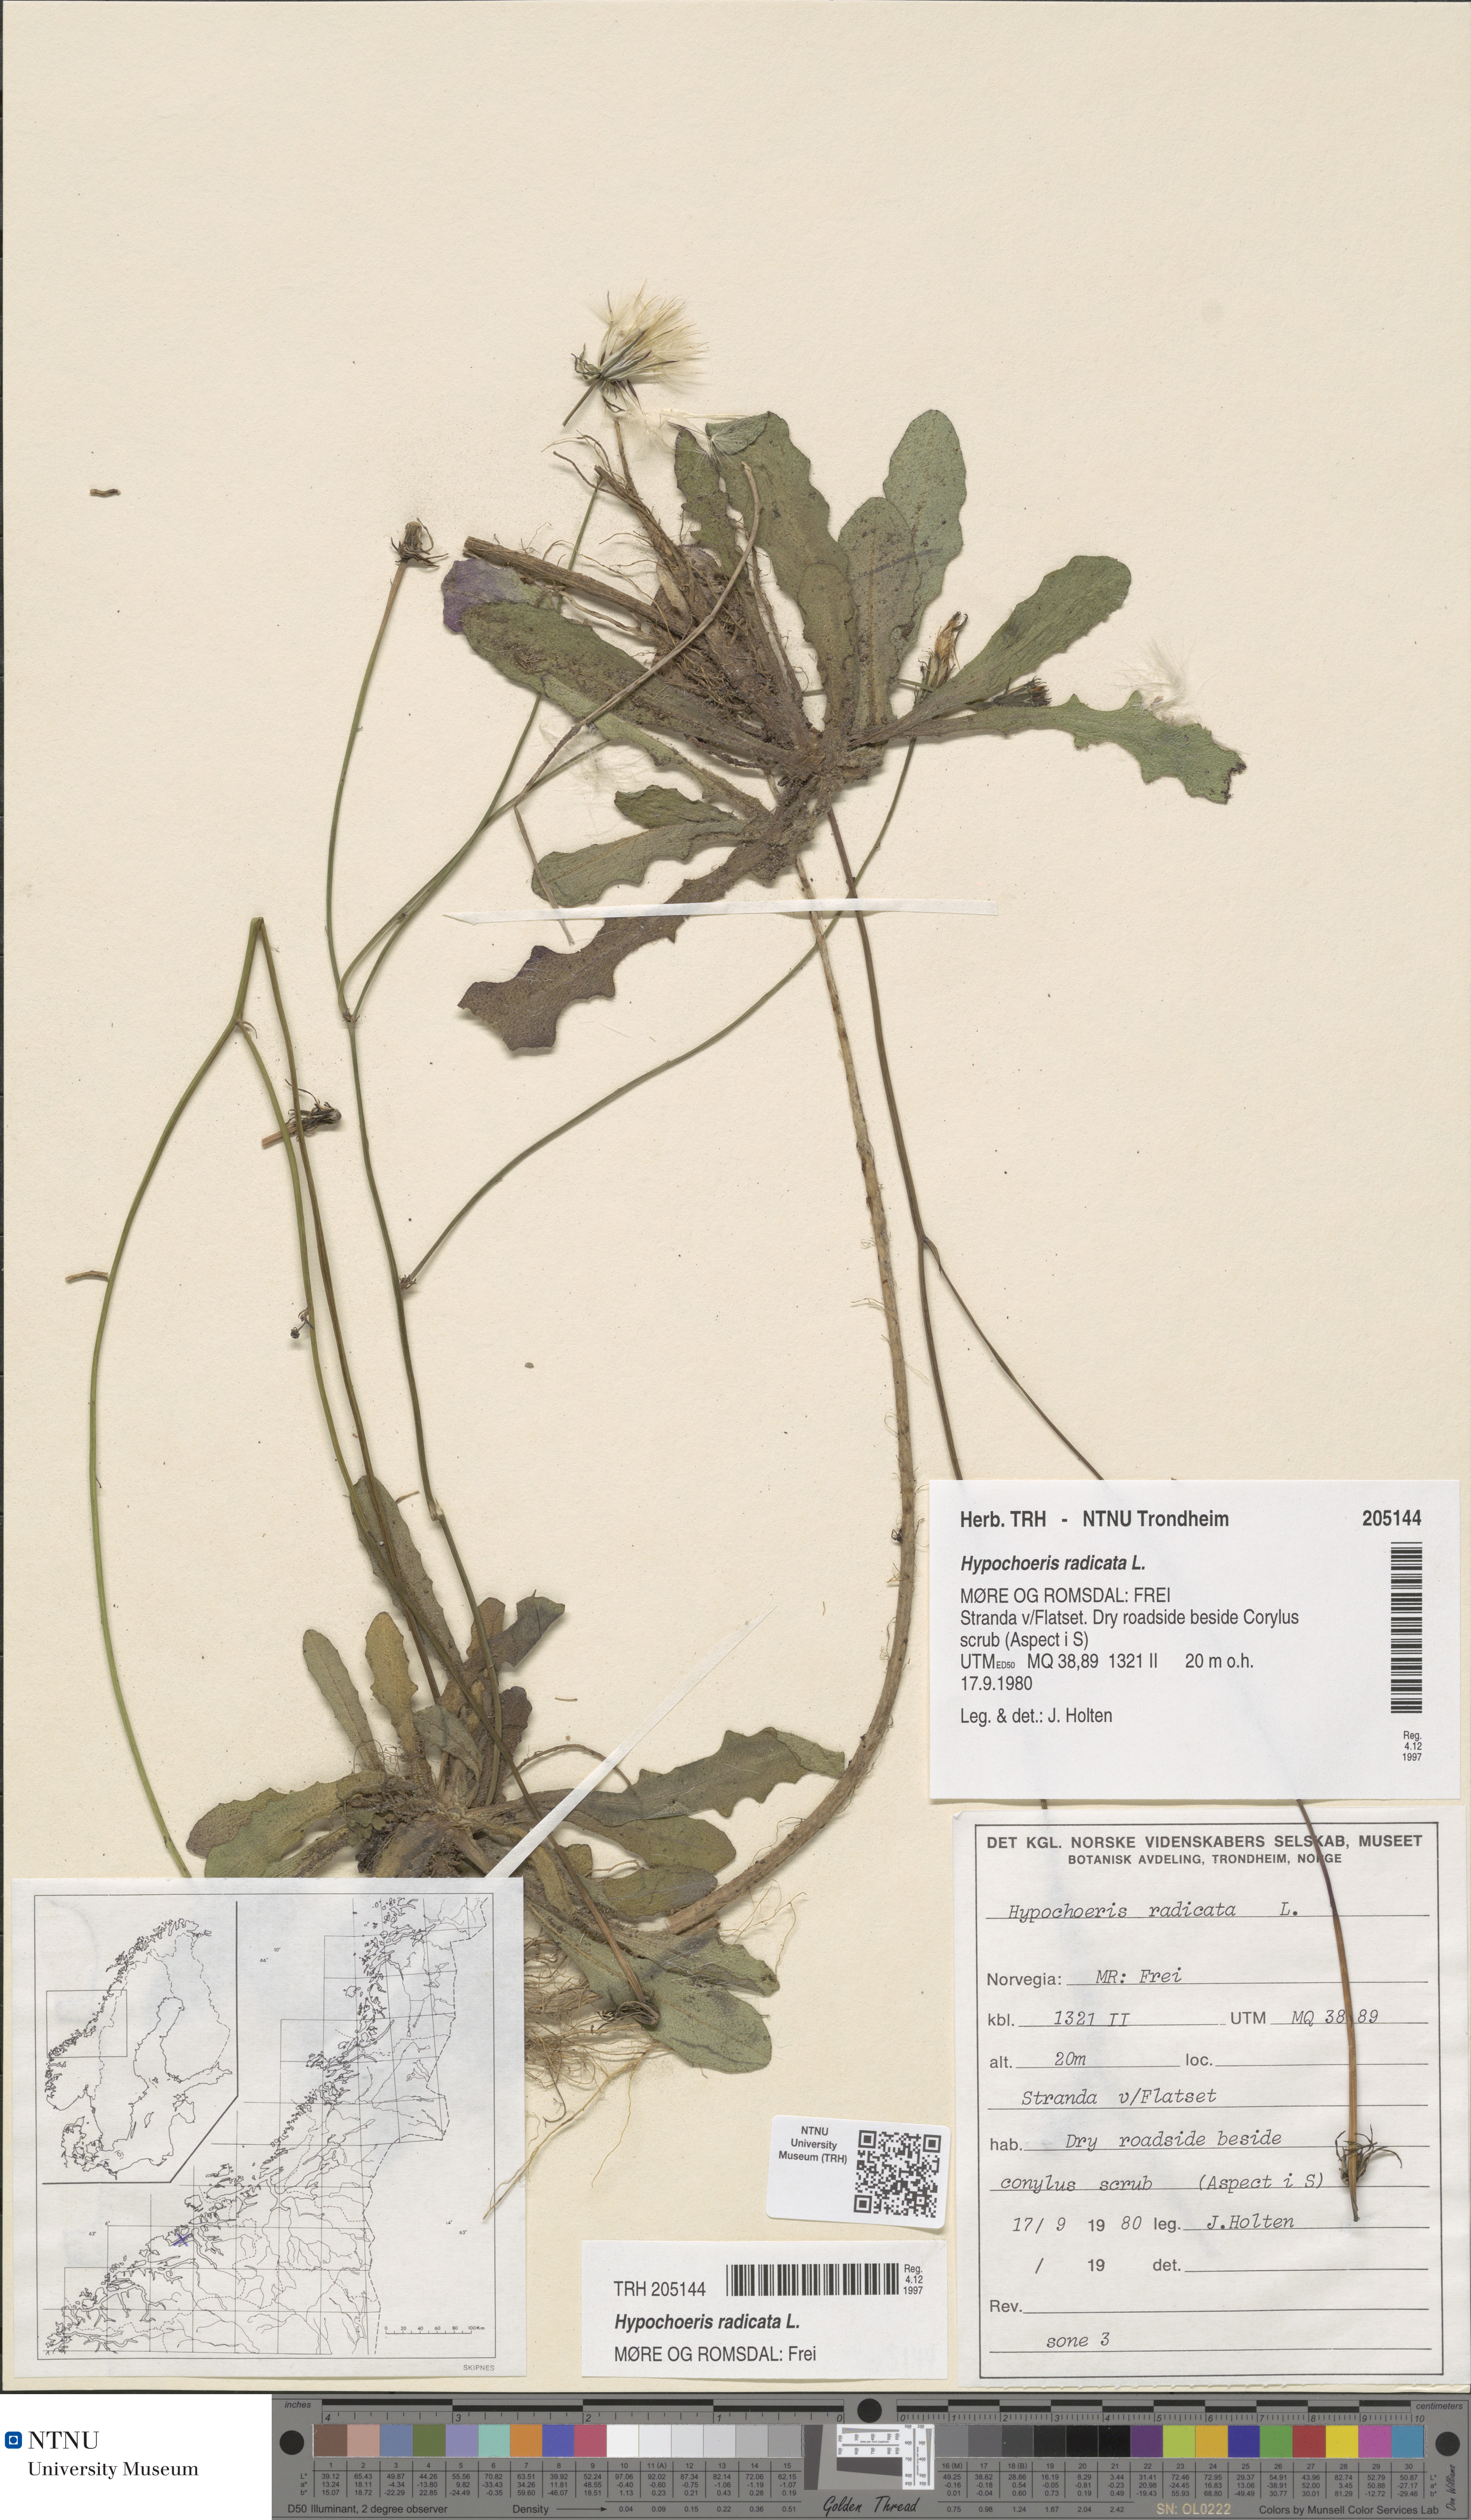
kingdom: Plantae
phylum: Tracheophyta
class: Magnoliopsida
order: Asterales
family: Asteraceae
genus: Hypochaeris
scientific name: Hypochaeris radicata
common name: Flatweed
